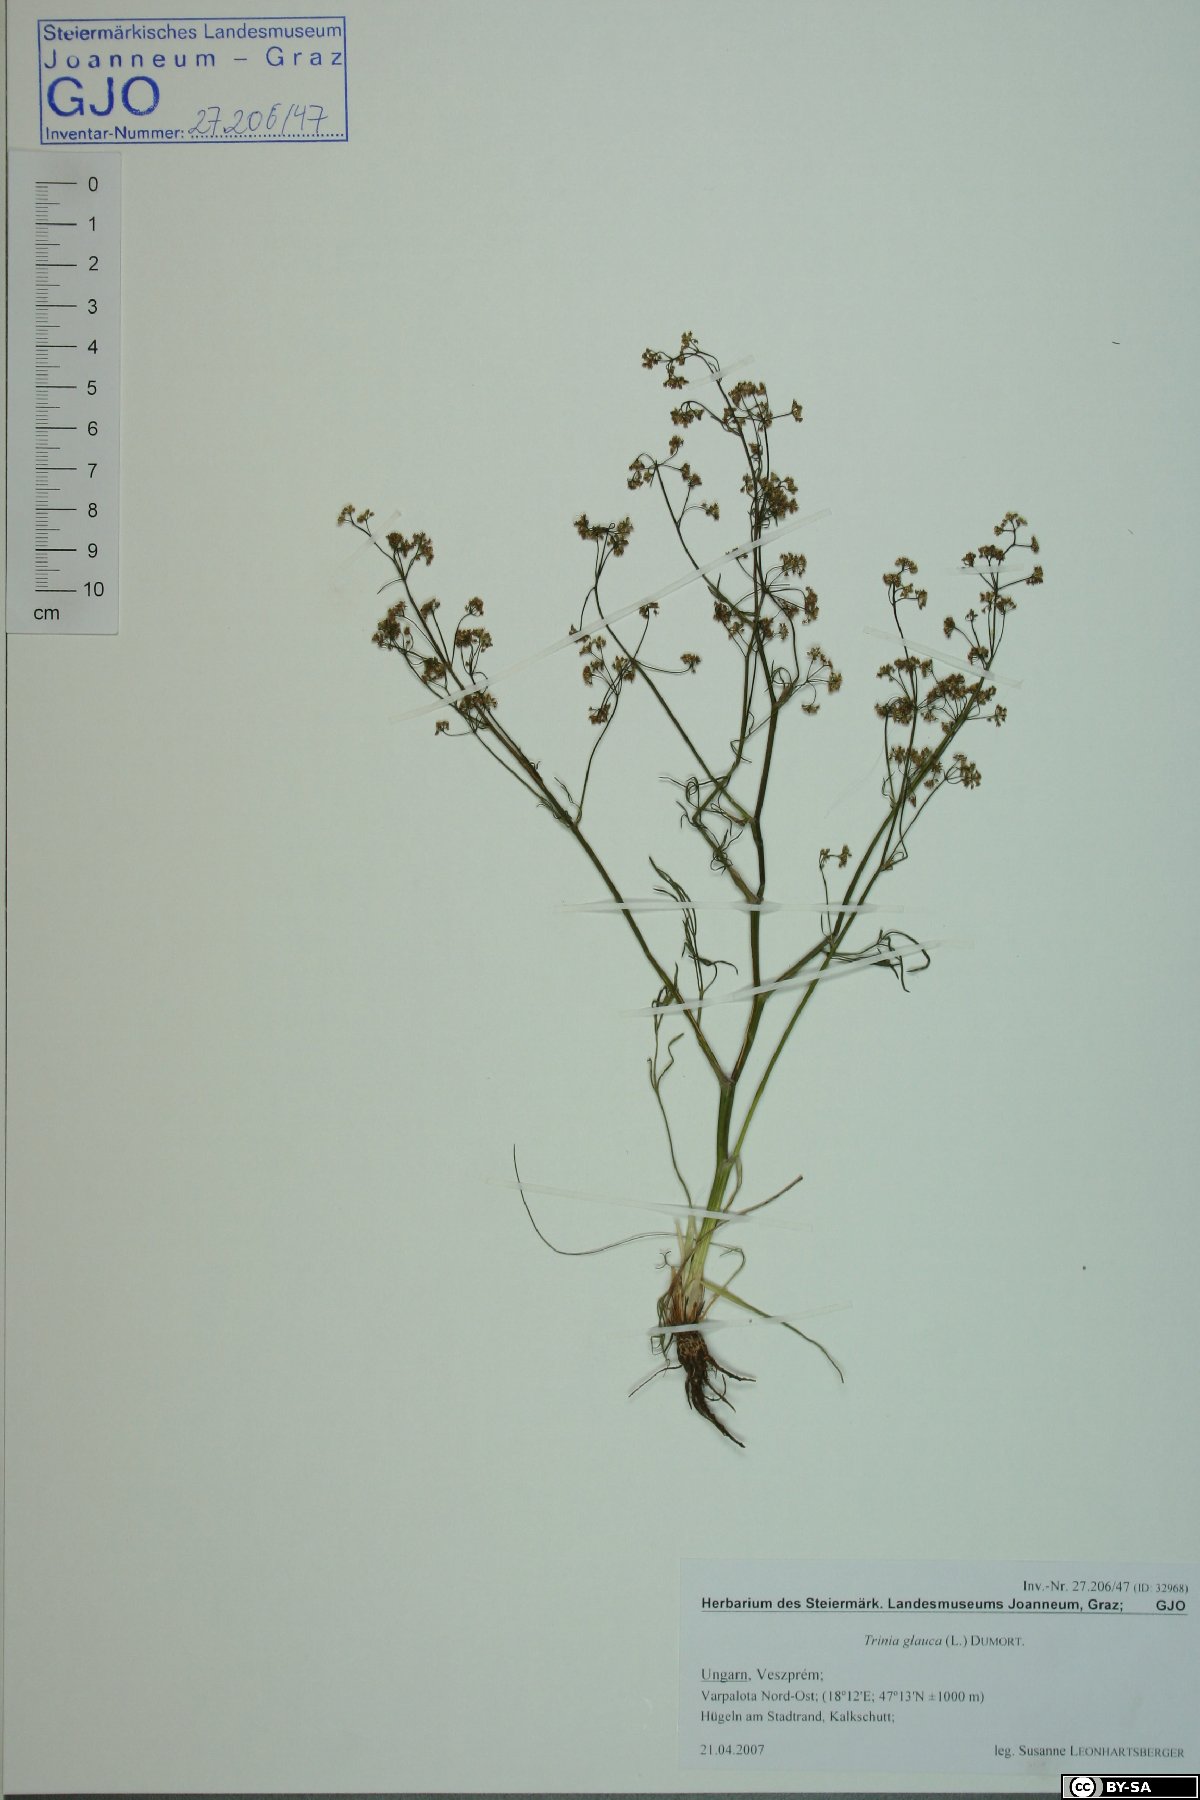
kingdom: Plantae
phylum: Tracheophyta
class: Magnoliopsida
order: Apiales
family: Apiaceae
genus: Trinia
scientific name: Trinia glauca
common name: Honewort
